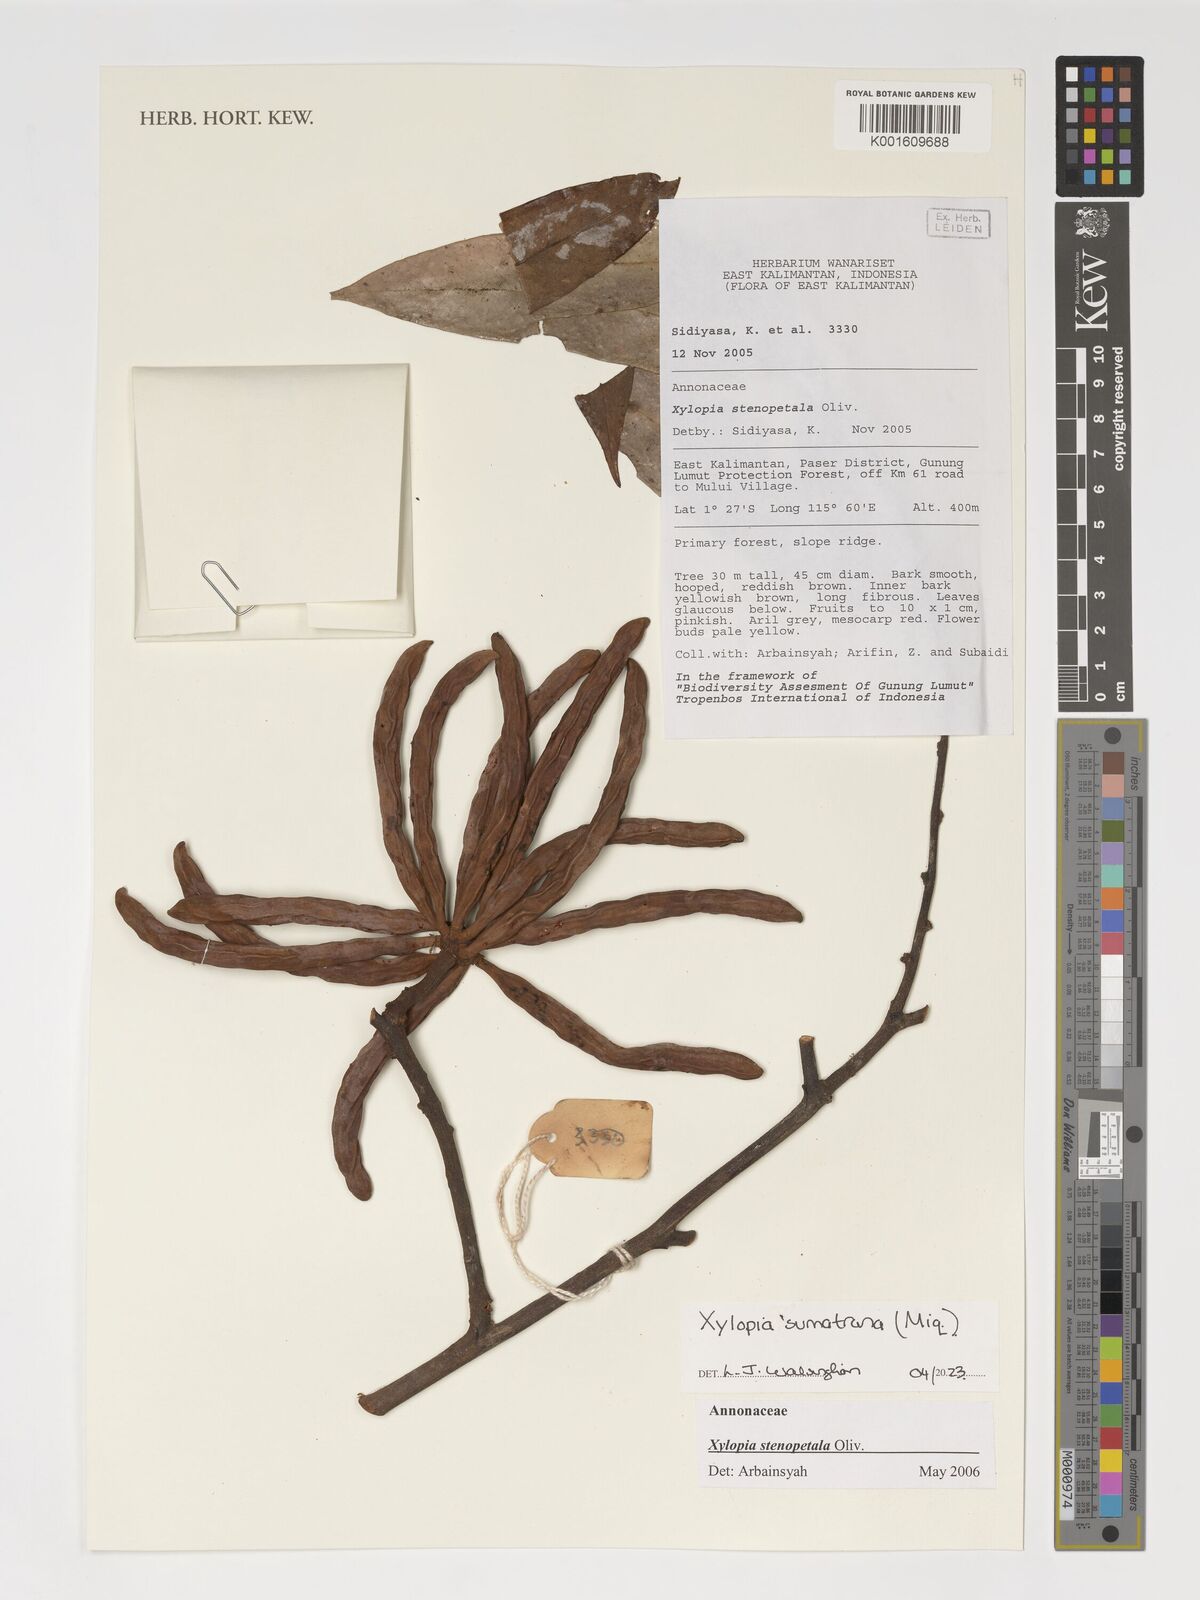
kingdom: Plantae
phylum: Tracheophyta
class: Magnoliopsida
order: Magnoliales
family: Annonaceae
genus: Unona
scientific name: Unona sumatrana
